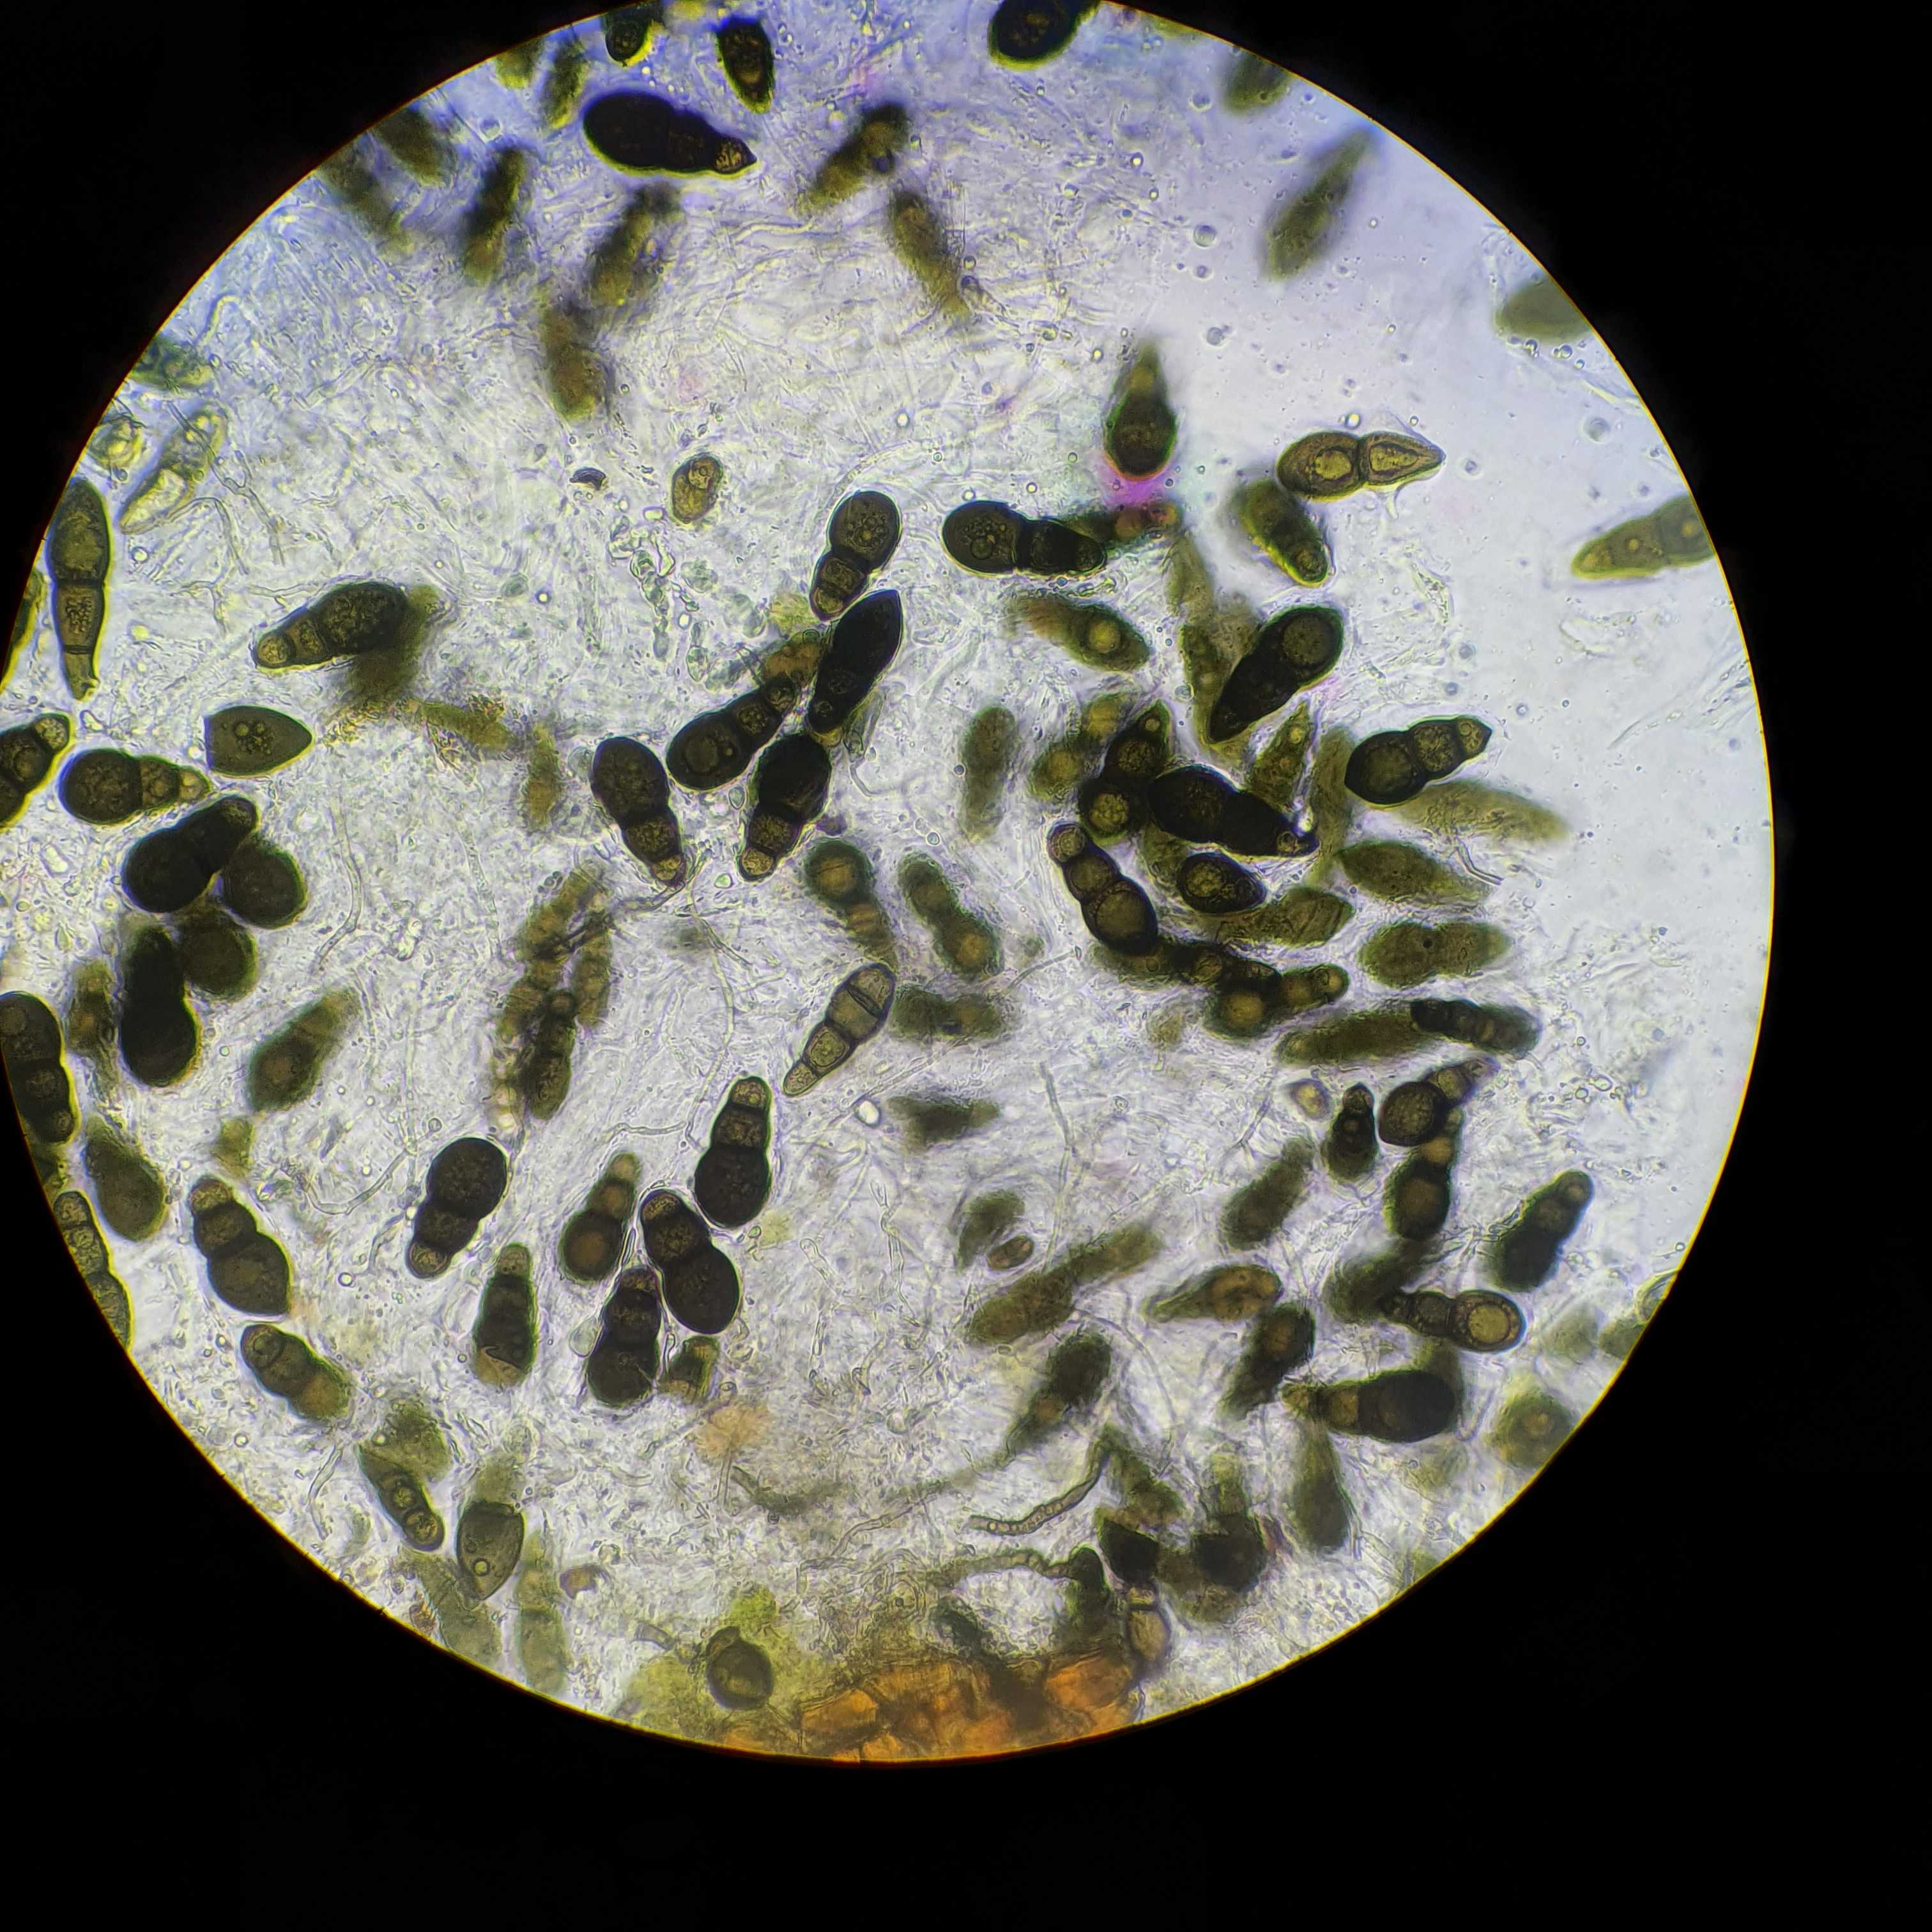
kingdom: Fungi
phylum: Ascomycota
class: Dothideomycetes
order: Pleosporales
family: Pleomassariaceae
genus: Splanchnonema
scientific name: Splanchnonema foedans
